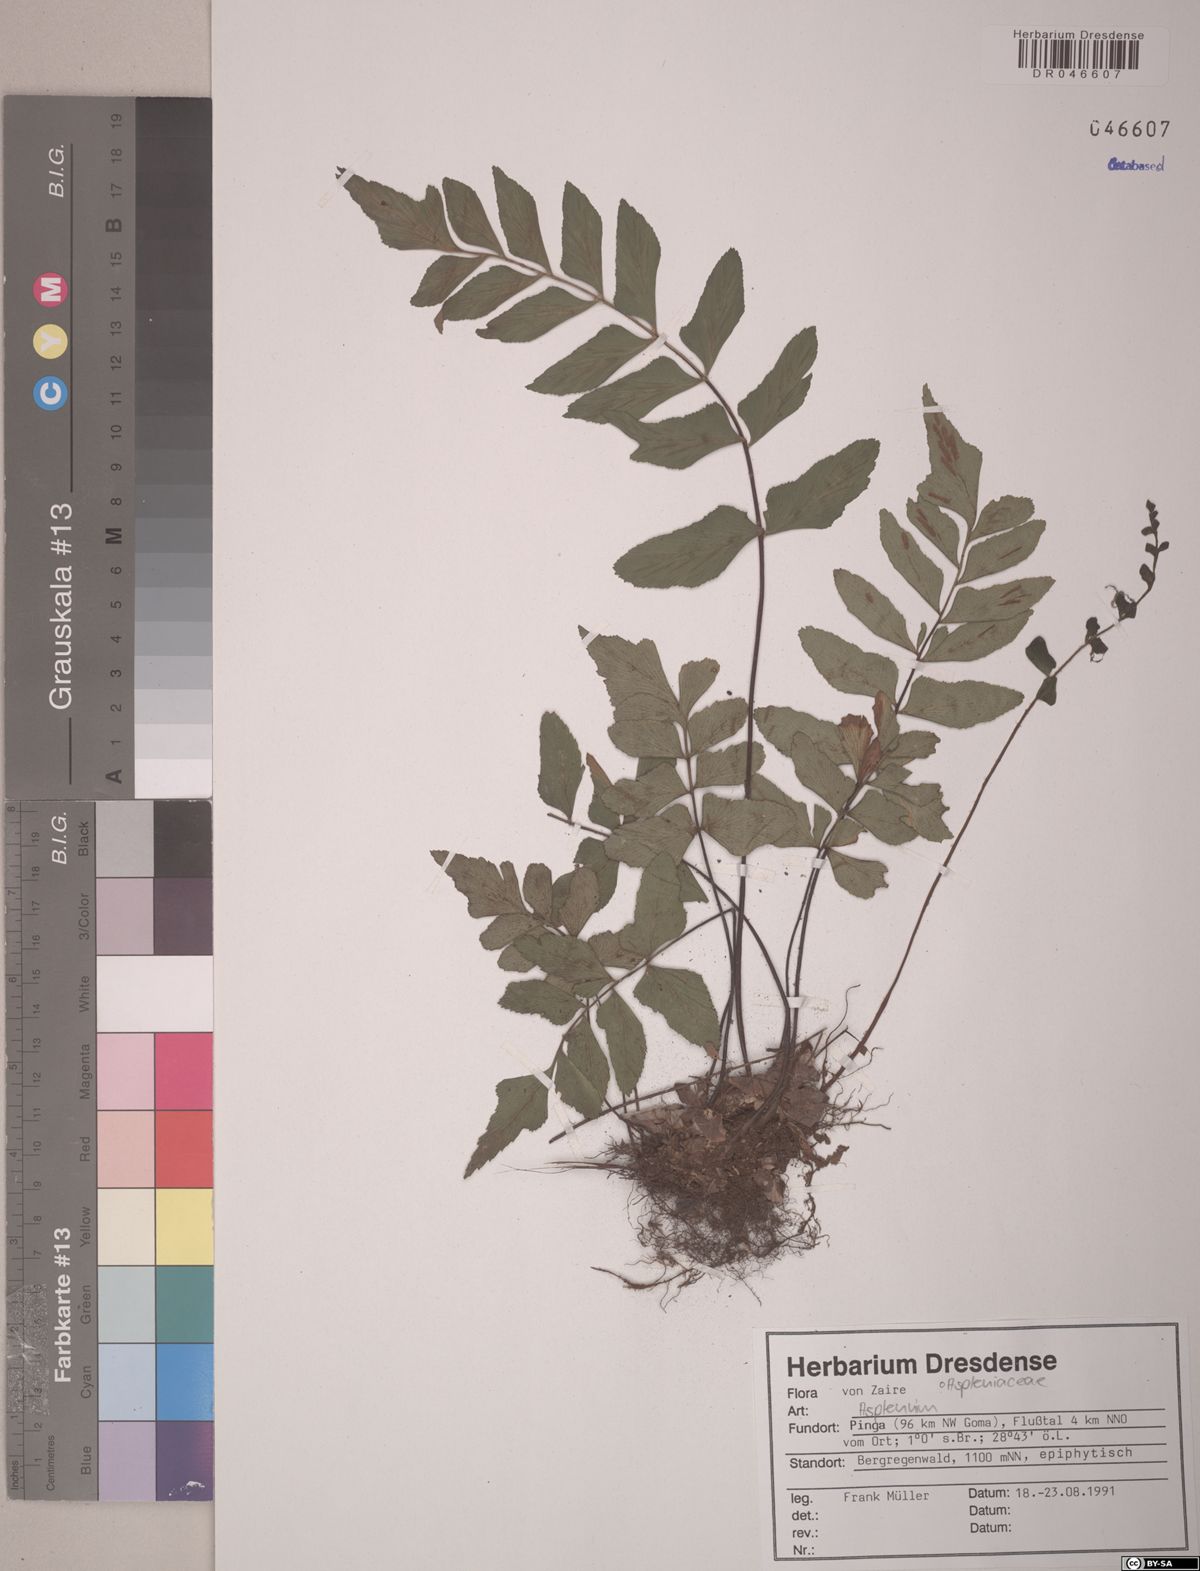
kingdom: Plantae
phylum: Tracheophyta
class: Polypodiopsida
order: Polypodiales
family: Aspleniaceae
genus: Asplenium
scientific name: Asplenium
